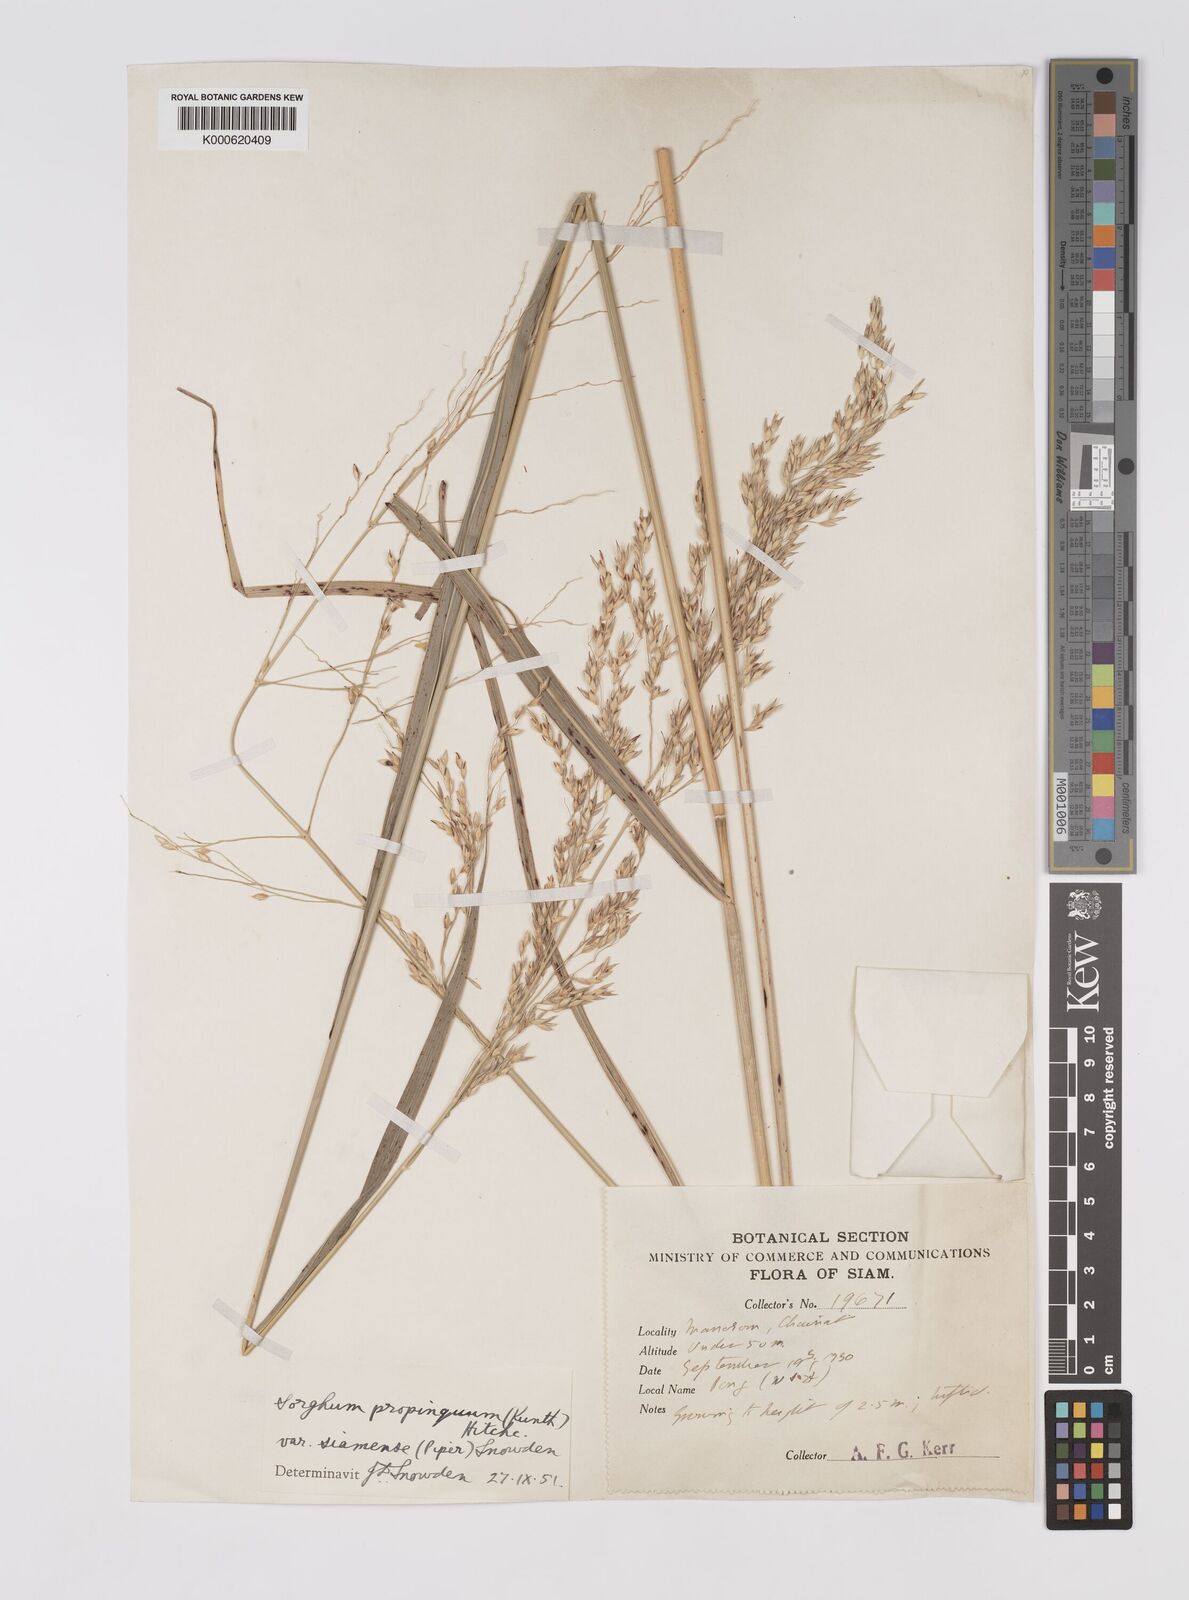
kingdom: Plantae
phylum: Tracheophyta
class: Liliopsida
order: Poales
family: Poaceae
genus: Sorghum
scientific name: Sorghum propinquum
